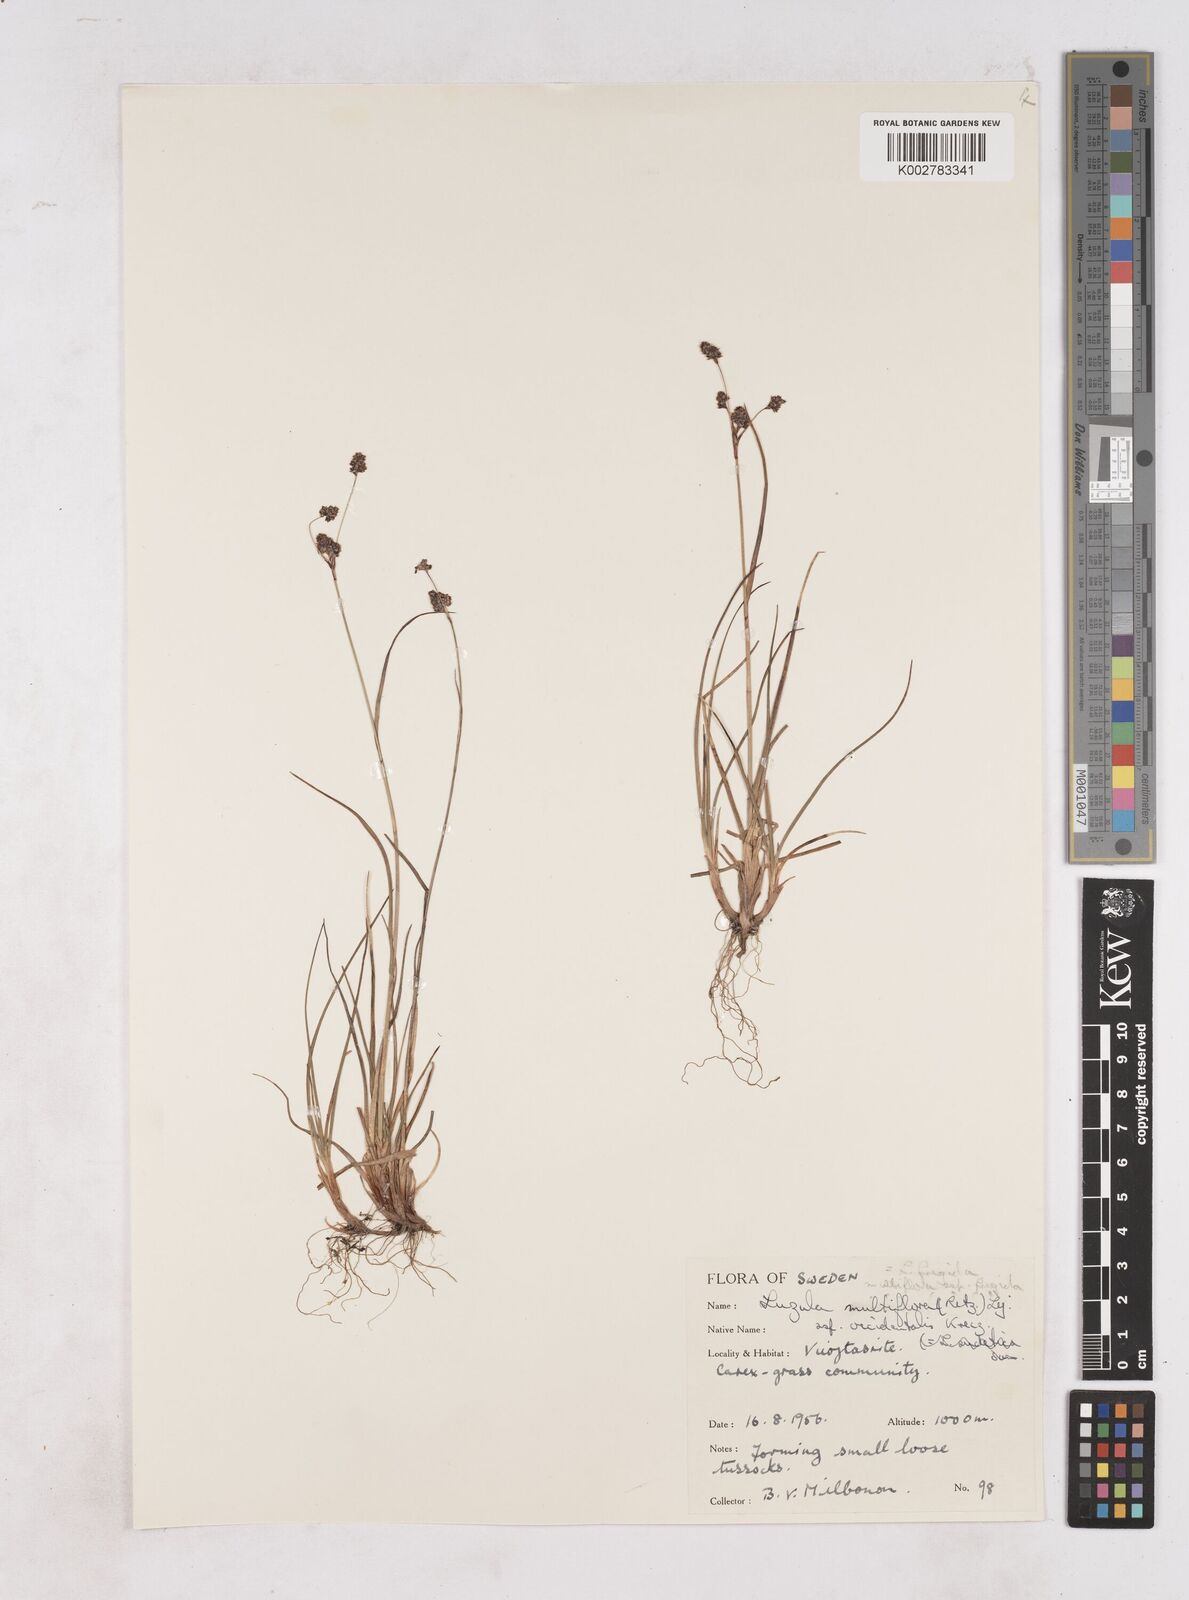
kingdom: Plantae
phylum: Tracheophyta
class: Liliopsida
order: Poales
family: Juncaceae
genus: Luzula
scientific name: Luzula multiflora
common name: Heath wood-rush
